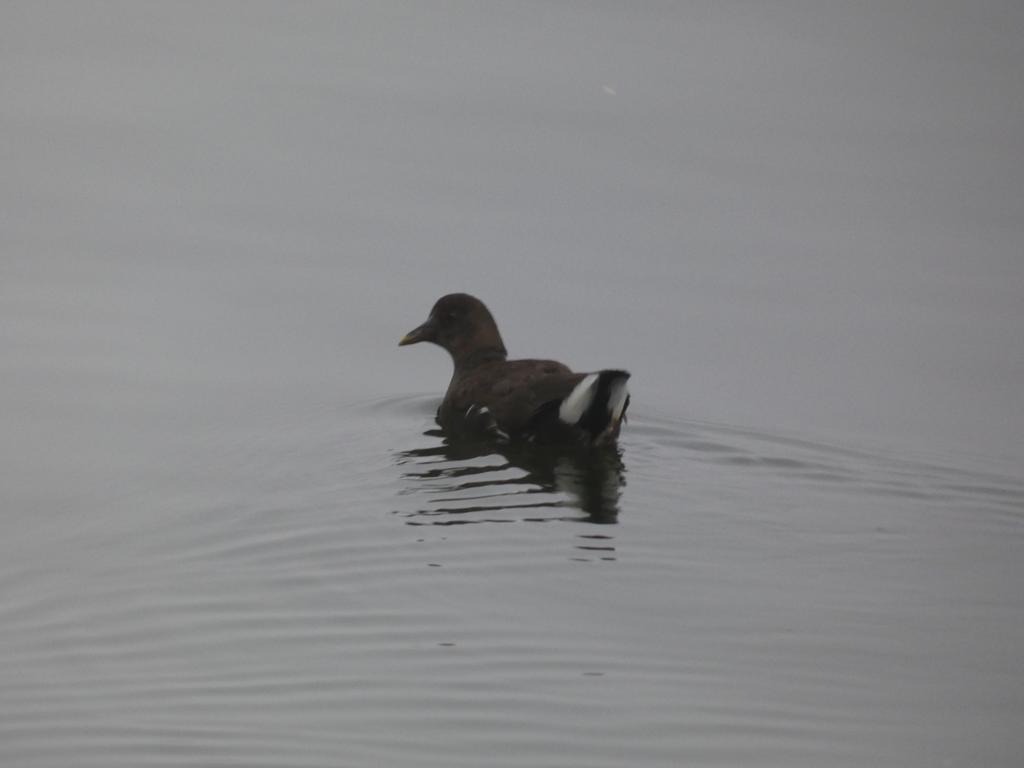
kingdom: Animalia
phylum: Chordata
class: Aves
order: Gruiformes
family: Rallidae
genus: Gallinula
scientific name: Gallinula chloropus
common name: Grønbenet rørhøne
